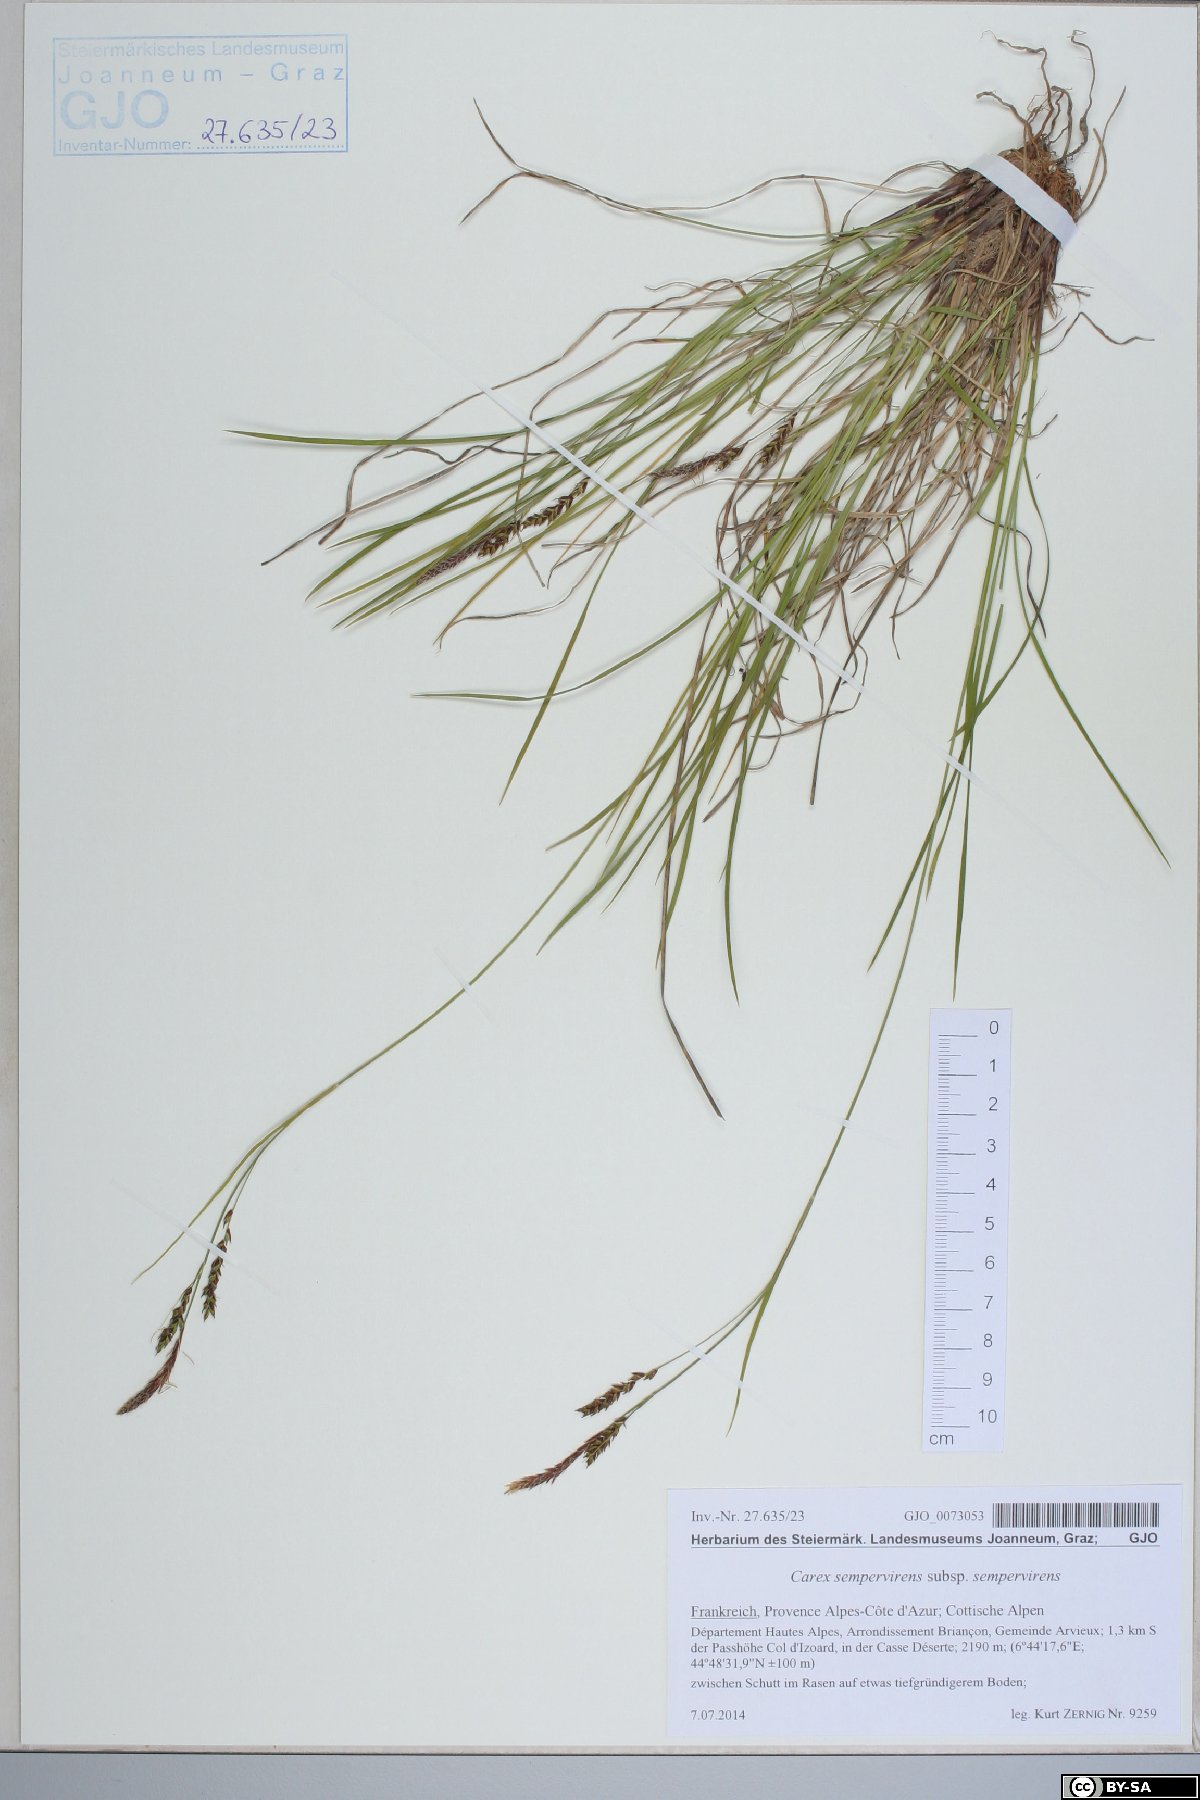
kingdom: Plantae
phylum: Tracheophyta
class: Liliopsida
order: Poales
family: Cyperaceae
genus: Carex
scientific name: Carex sempervirens
